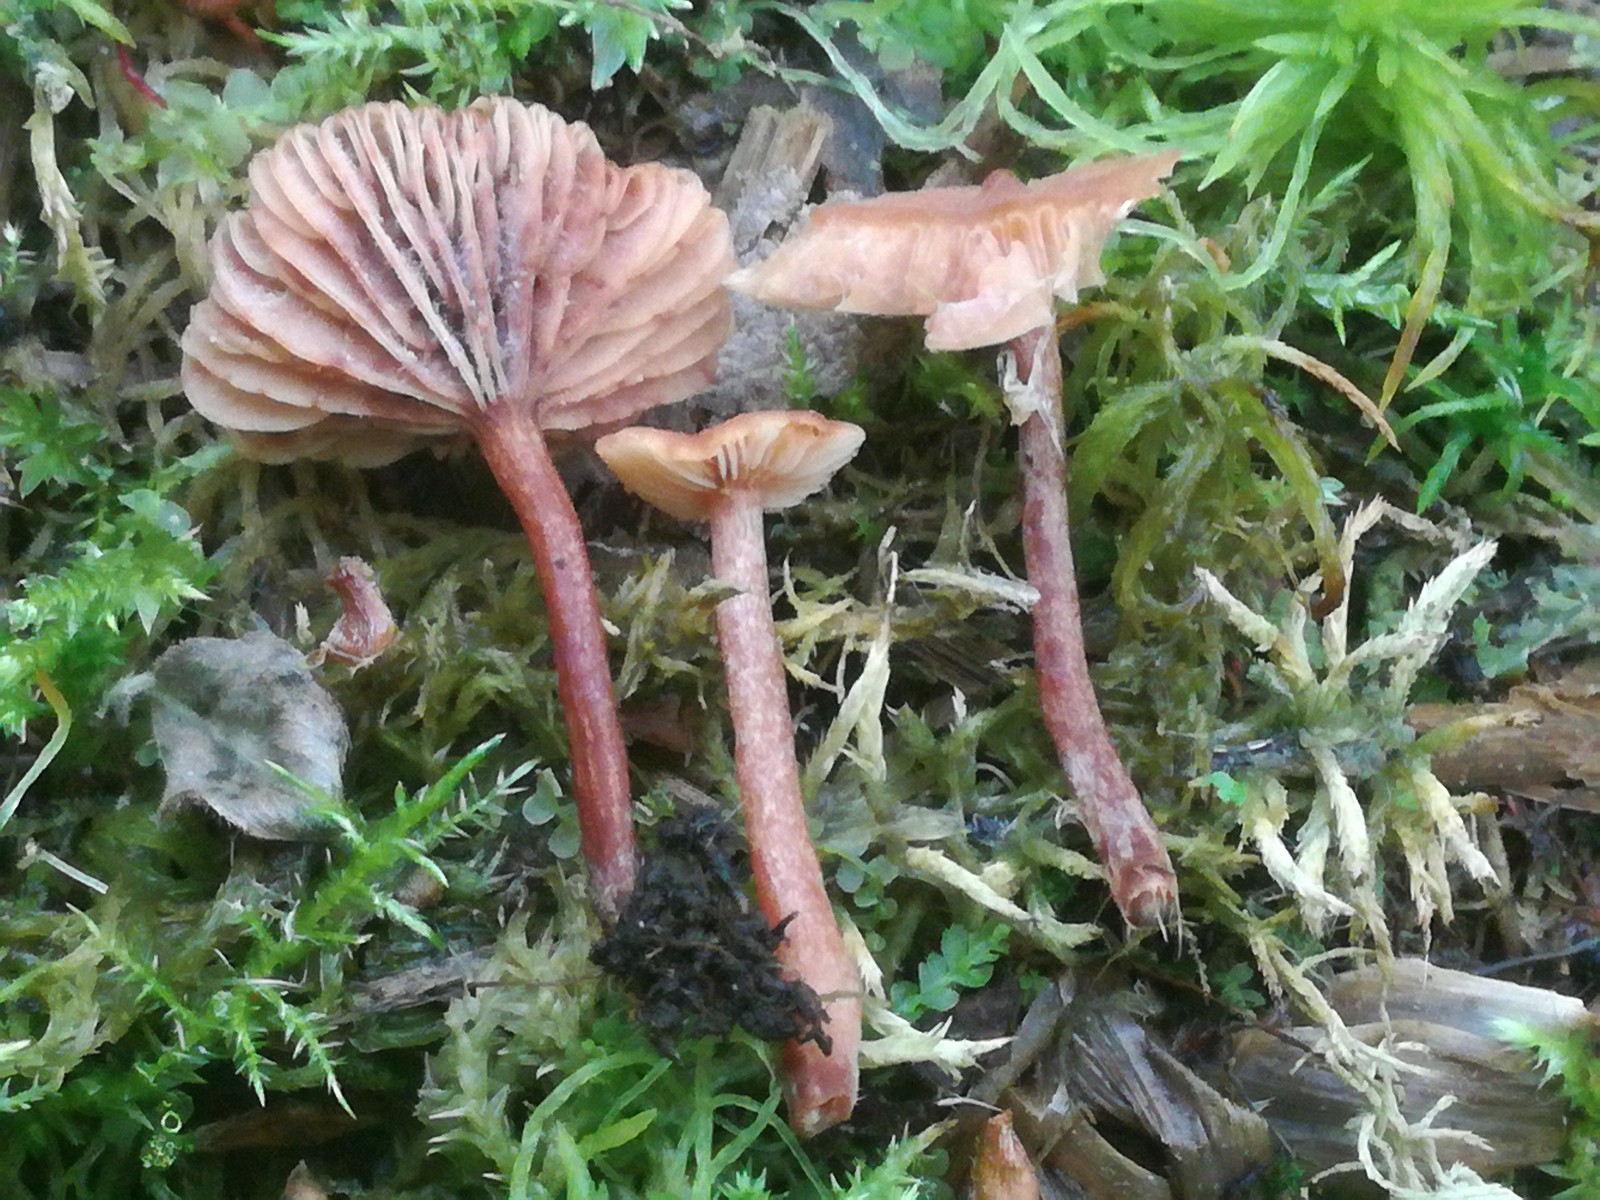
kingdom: Fungi
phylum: Basidiomycota
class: Agaricomycetes
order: Russulales
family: Russulaceae
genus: Lactarius
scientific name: Lactarius cyathuliformis
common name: mørkøjet mælkehat
